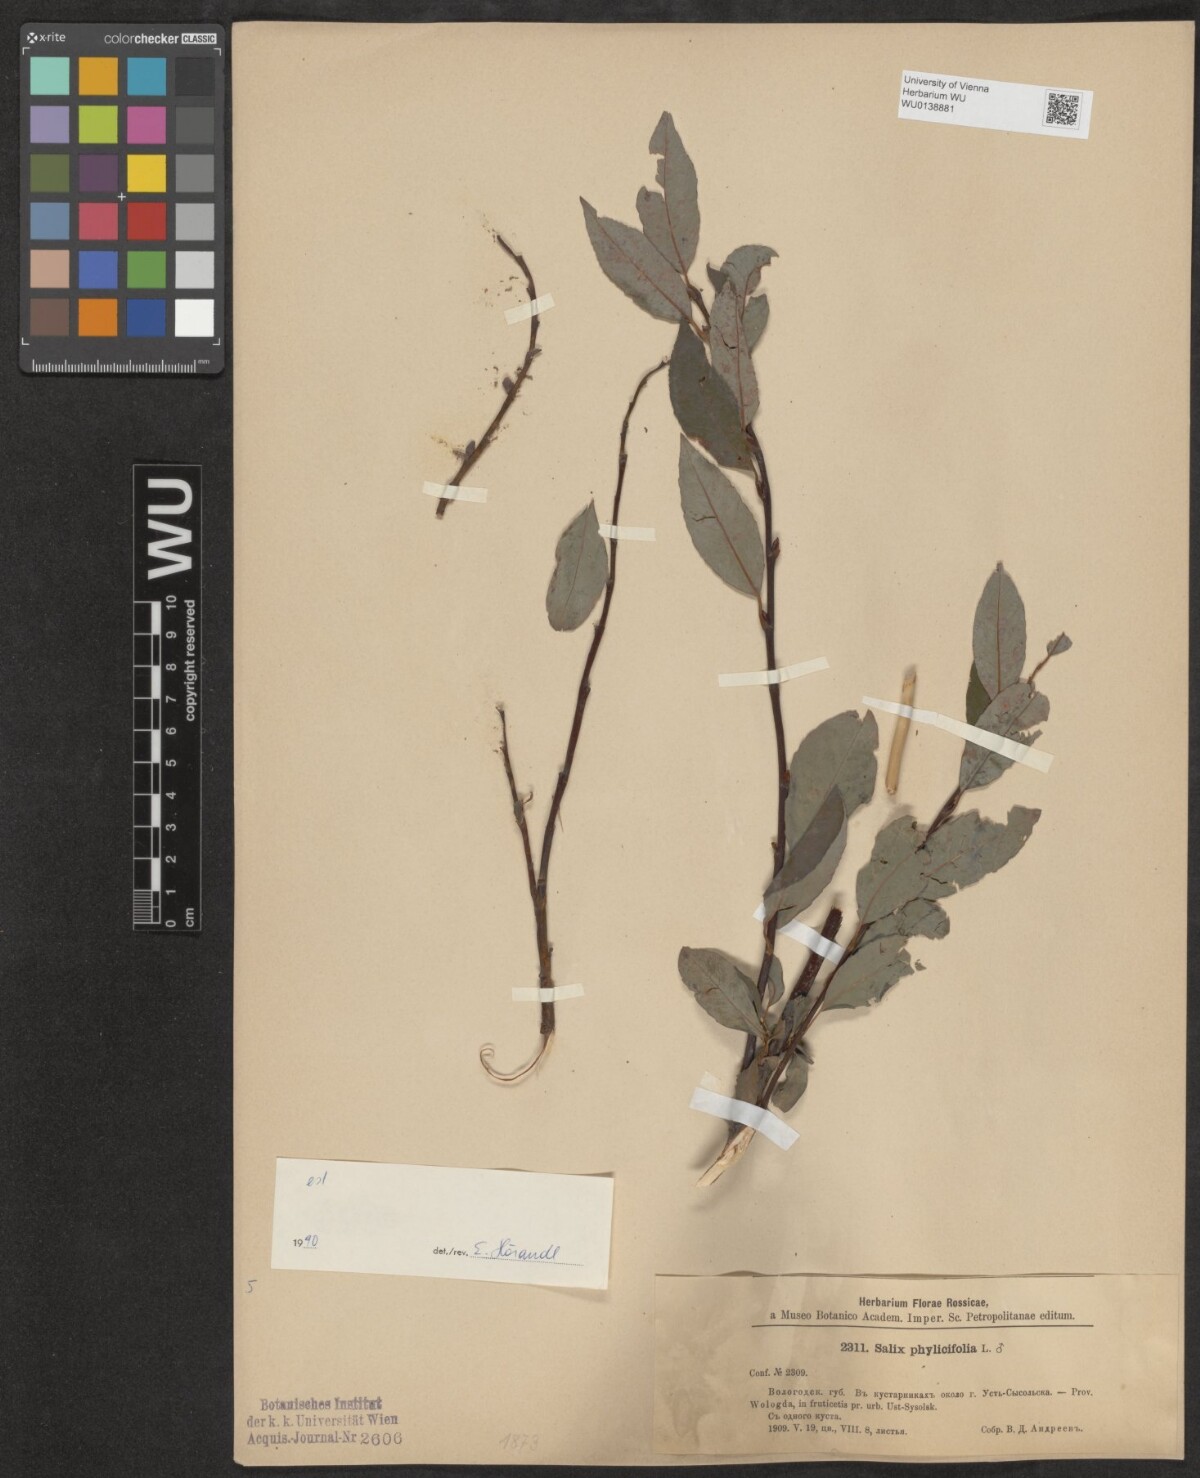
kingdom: Plantae
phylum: Tracheophyta
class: Magnoliopsida
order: Malpighiales
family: Salicaceae
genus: Salix
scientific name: Salix phylicifolia
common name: Tea-leaved willow
